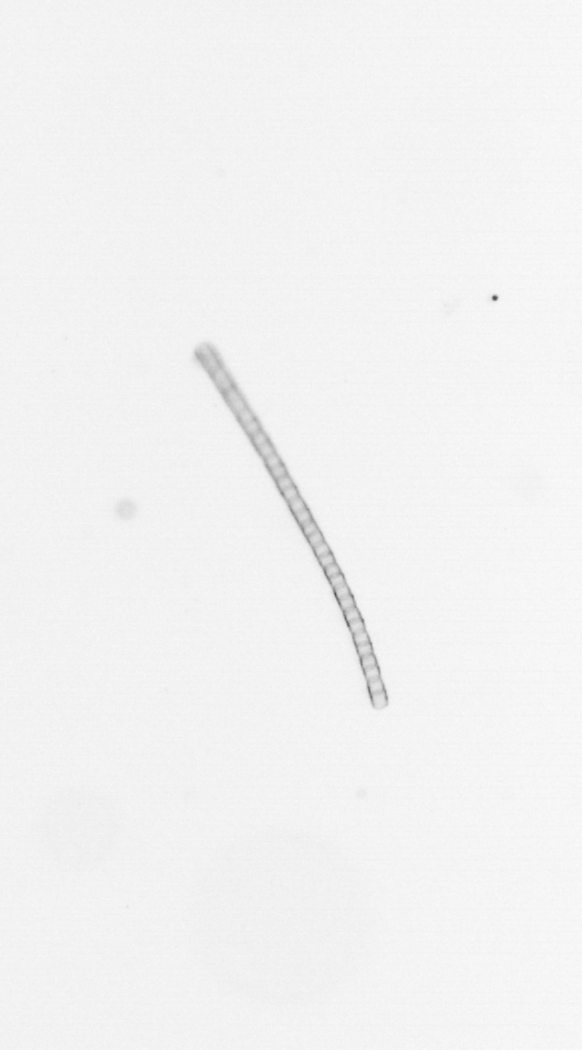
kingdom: Chromista
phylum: Ochrophyta
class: Bacillariophyceae
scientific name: Bacillariophyceae
